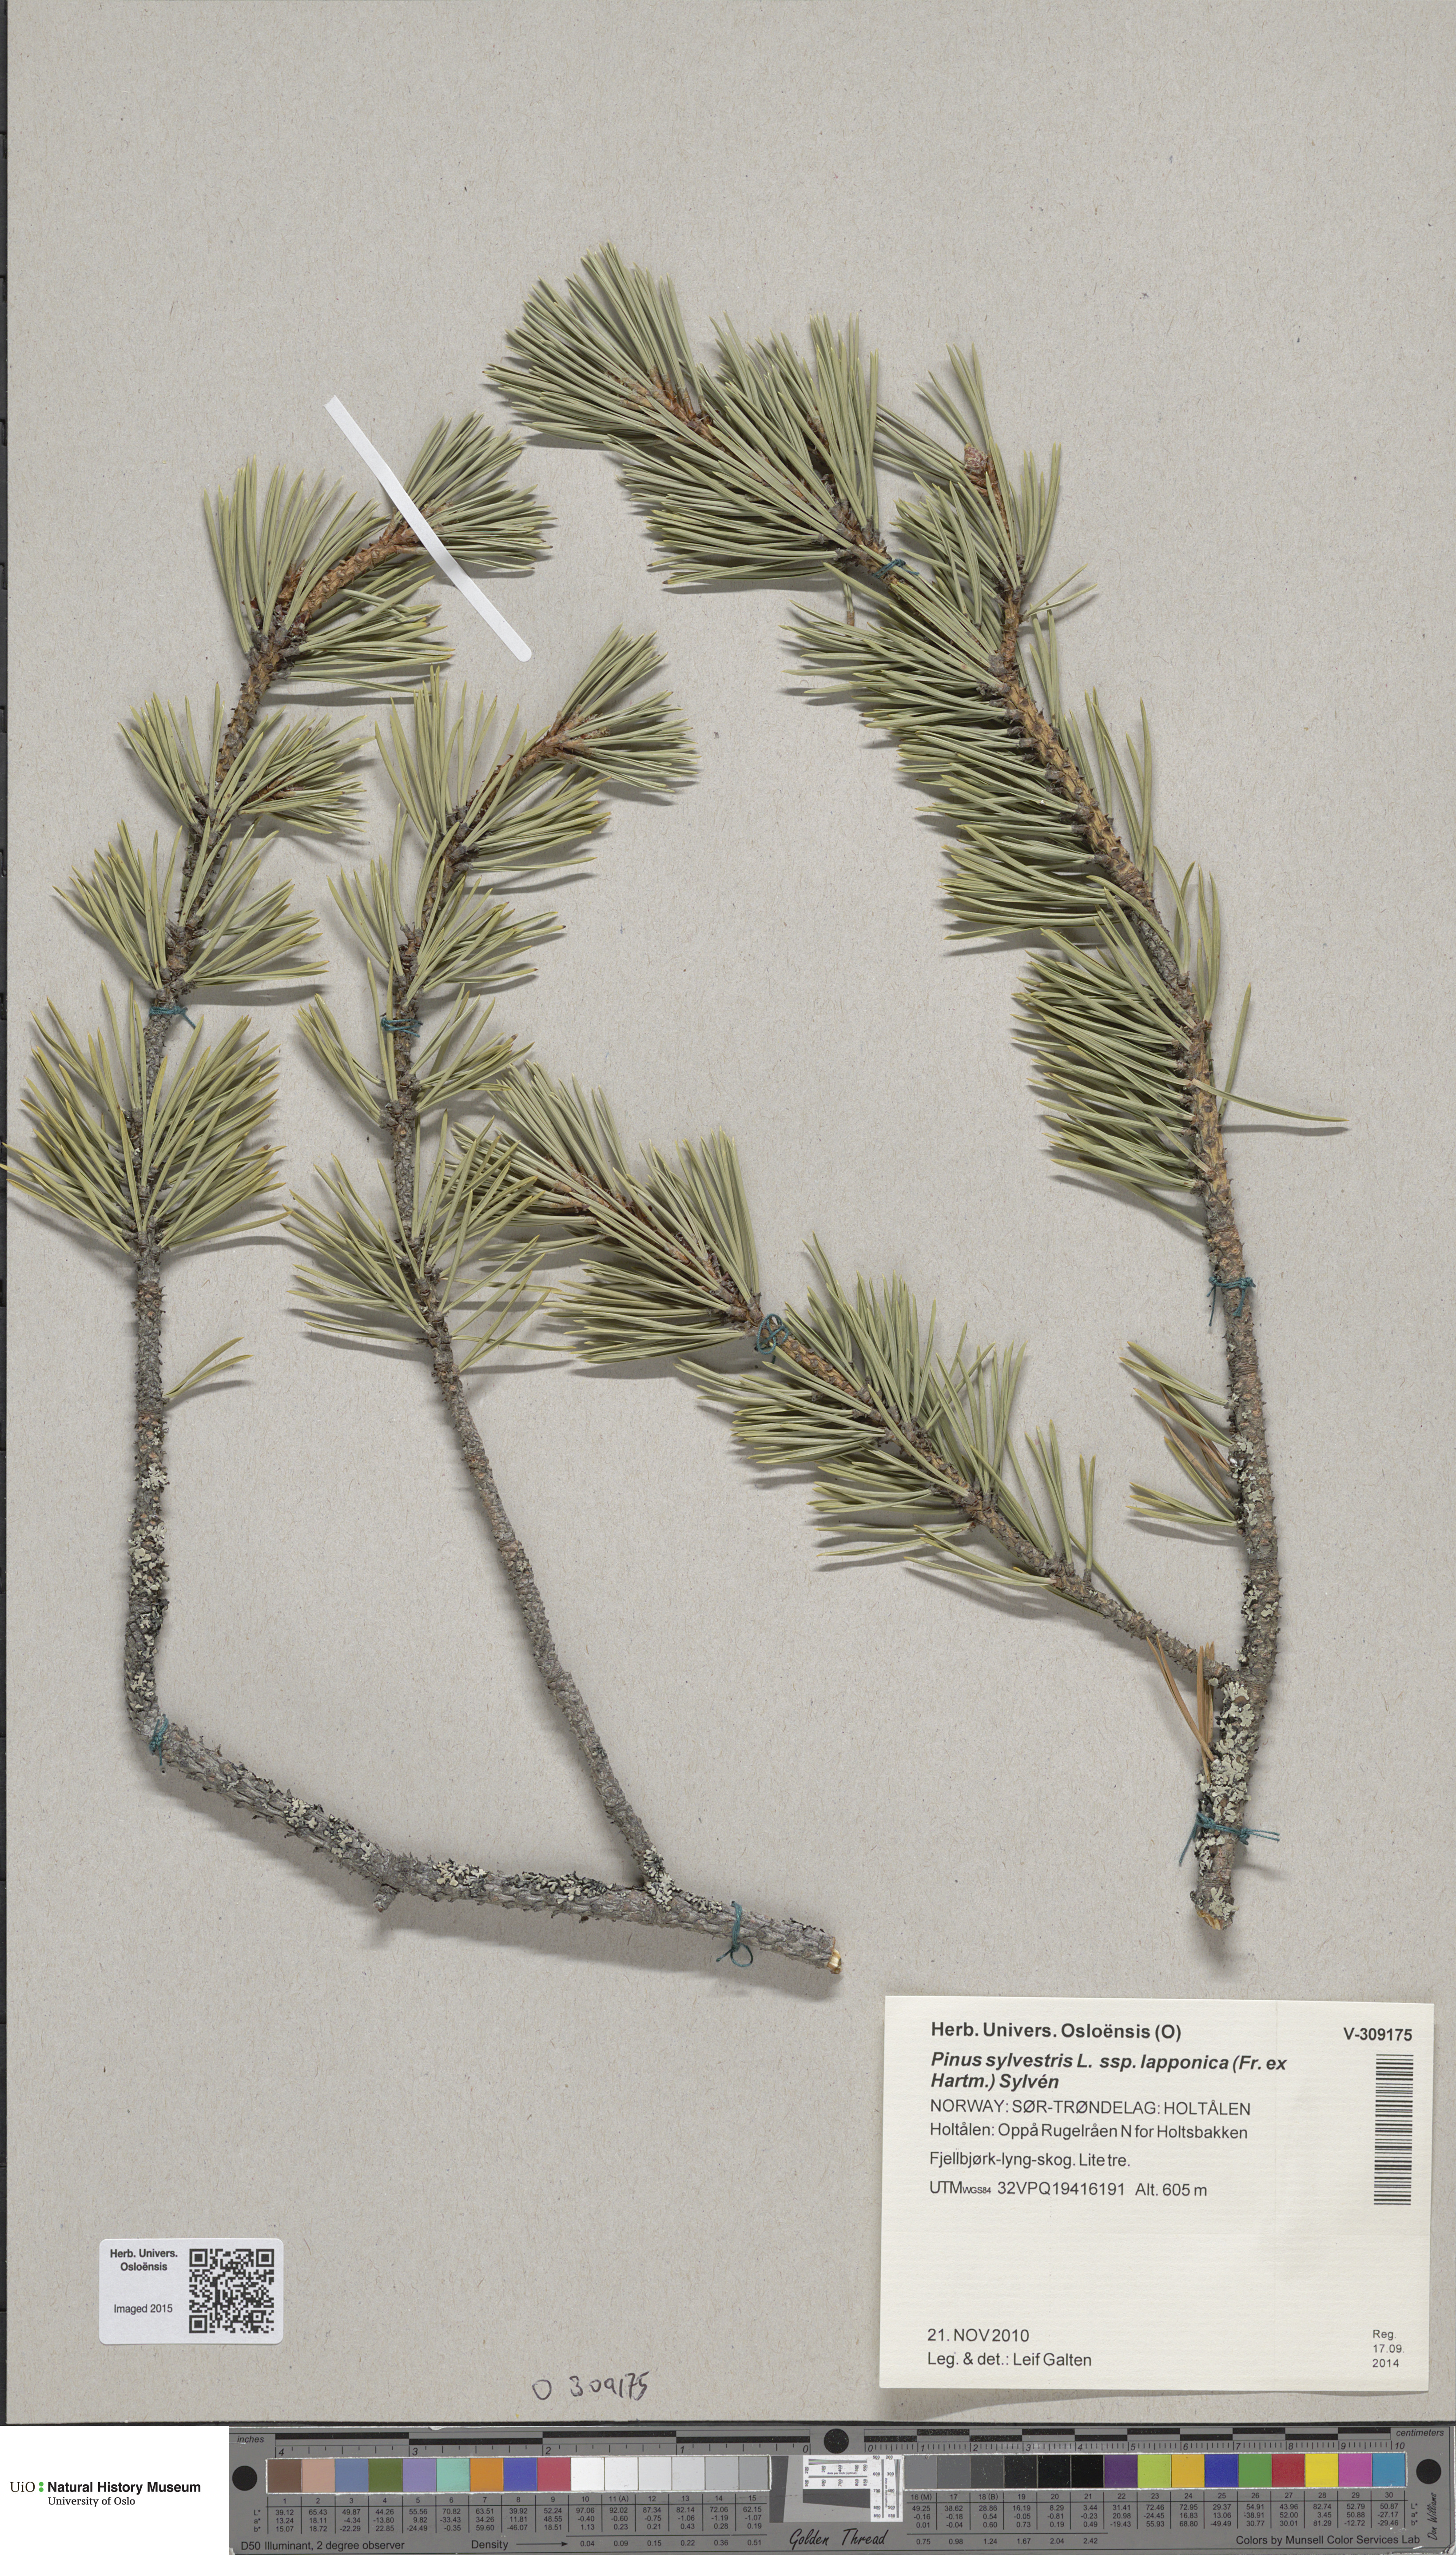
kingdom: Plantae
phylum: Tracheophyta
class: Pinopsida
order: Pinales
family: Pinaceae
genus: Pinus
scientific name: Pinus sylvestris
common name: Scots pine
